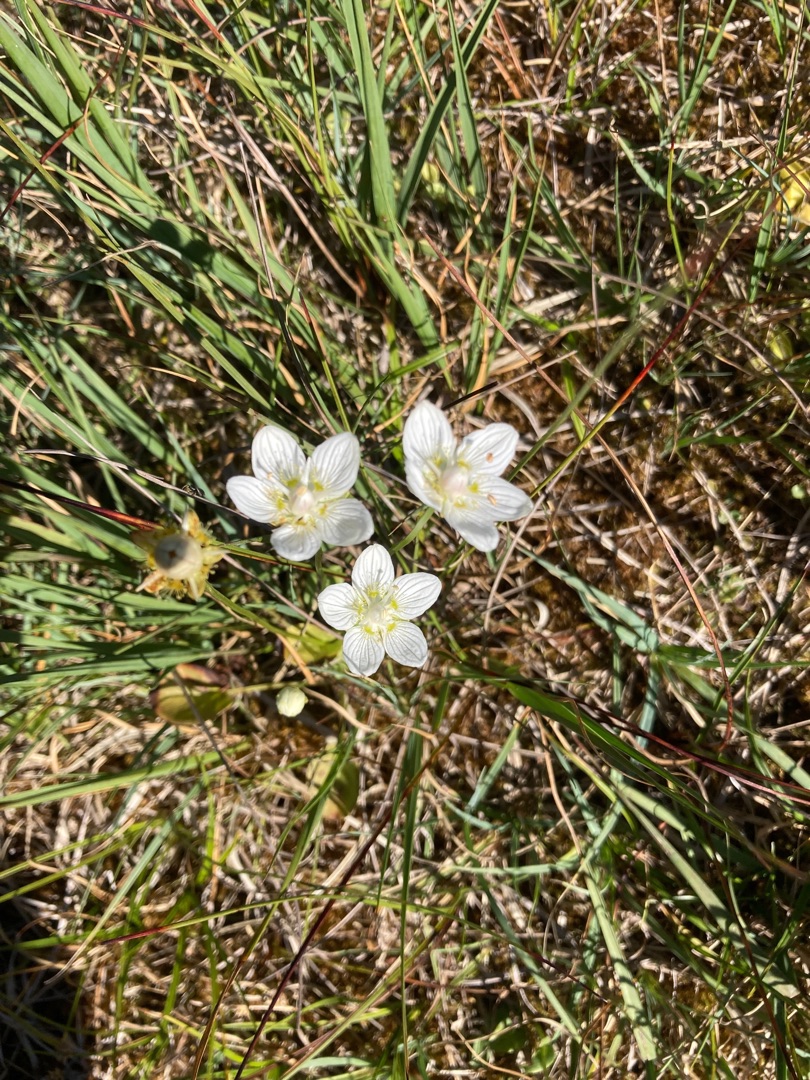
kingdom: Plantae
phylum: Tracheophyta
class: Magnoliopsida
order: Celastrales
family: Parnassiaceae
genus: Parnassia
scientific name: Parnassia palustris
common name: Leverurt
